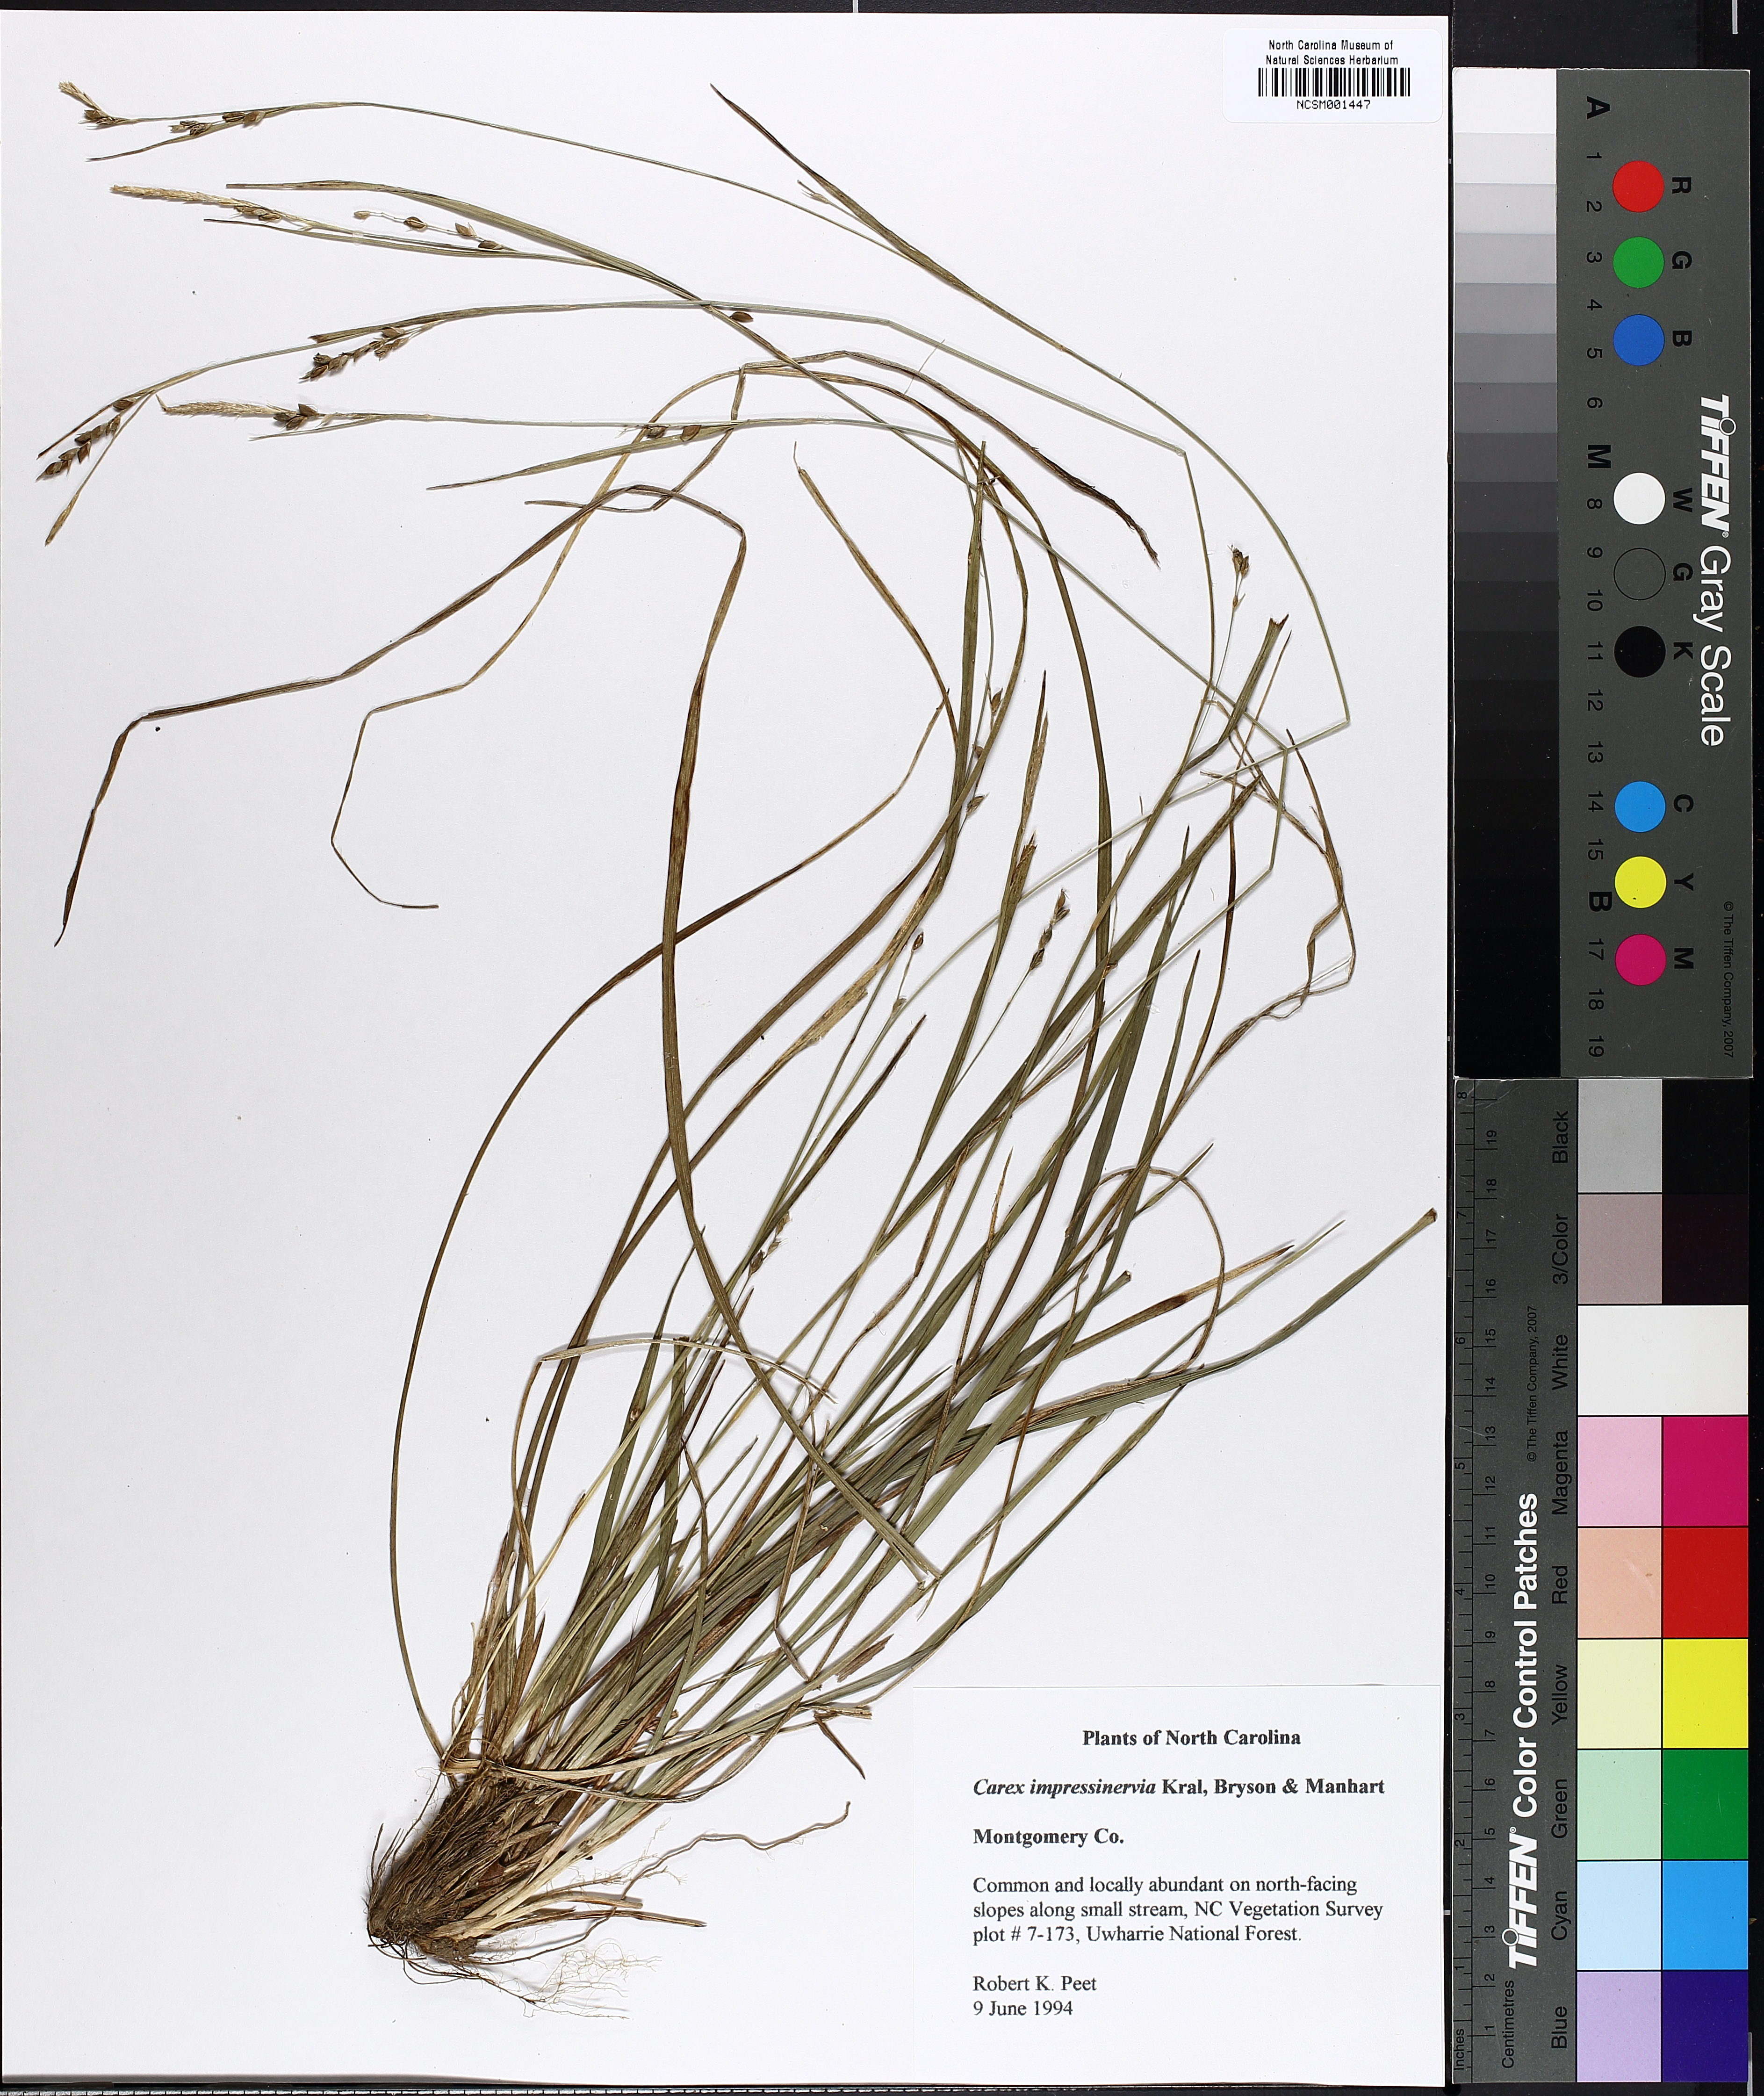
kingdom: Plantae
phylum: Tracheophyta
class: Liliopsida
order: Poales
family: Cyperaceae
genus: Carex
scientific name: Carex impressinervia
